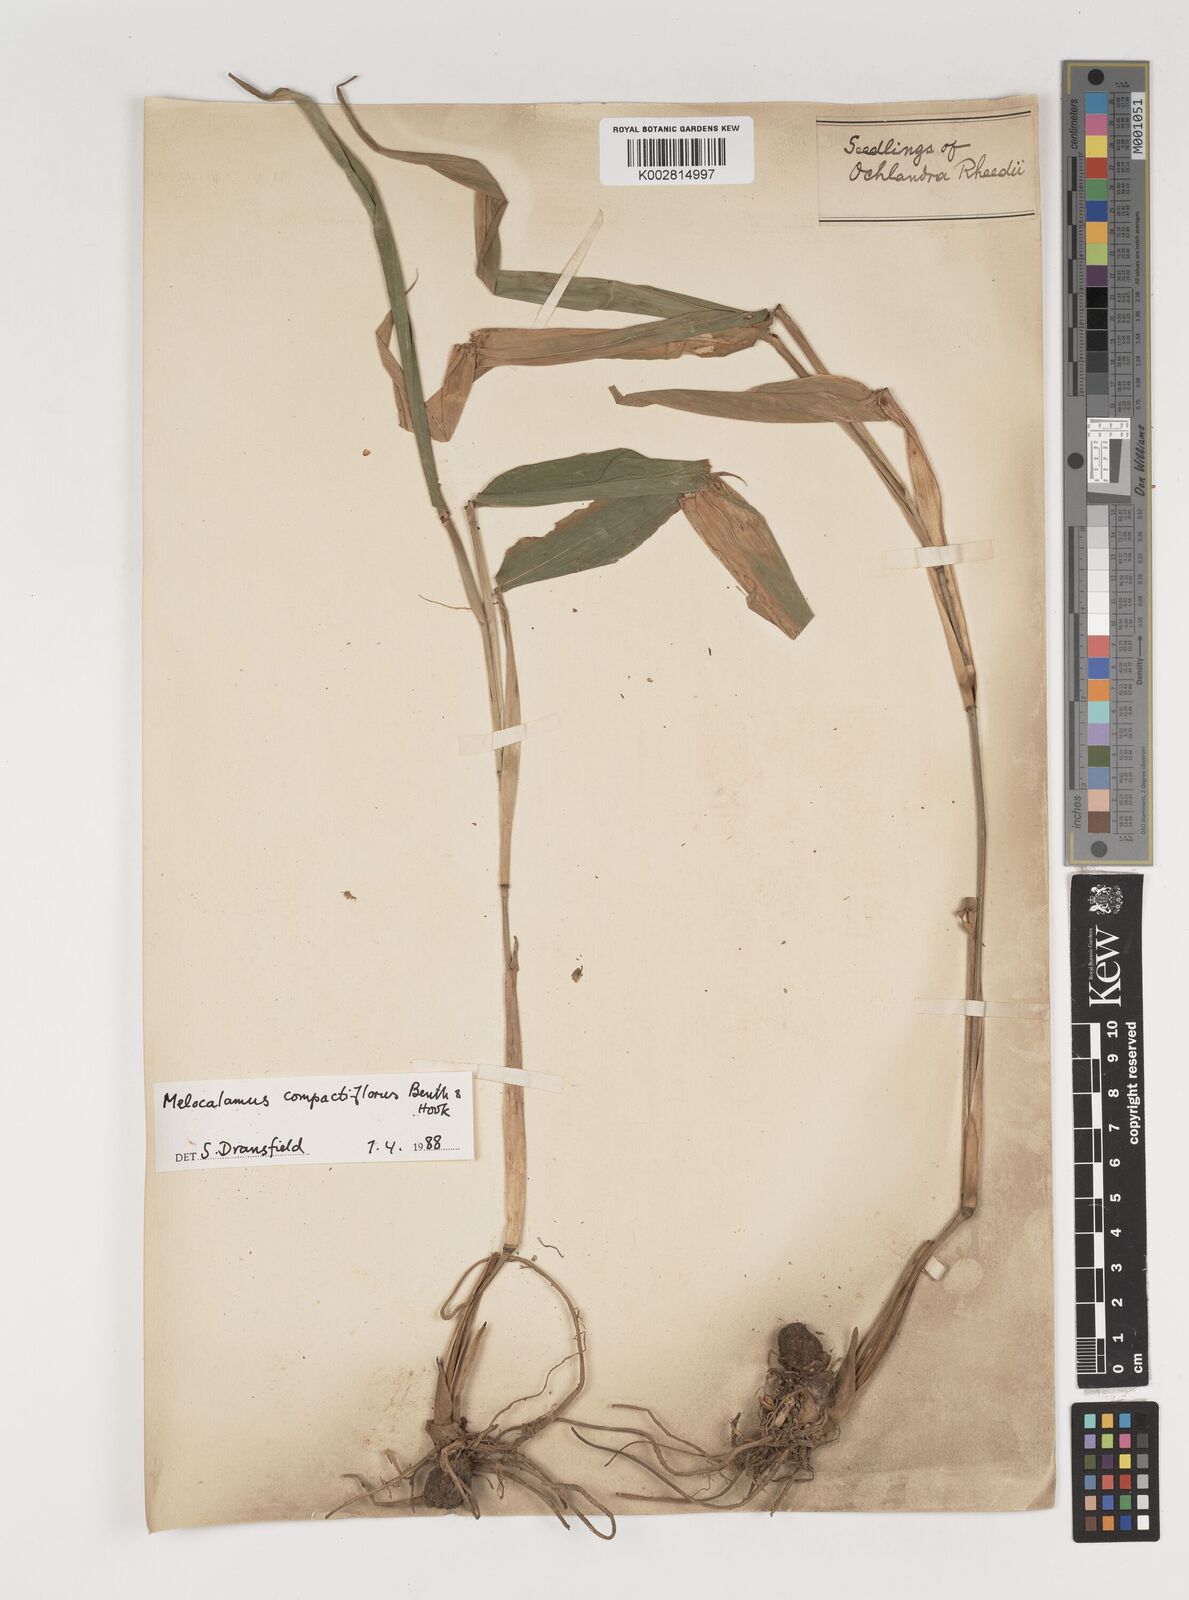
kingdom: Plantae
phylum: Tracheophyta
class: Liliopsida
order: Poales
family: Poaceae
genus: Melocalamus
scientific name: Melocalamus compactiflorus
